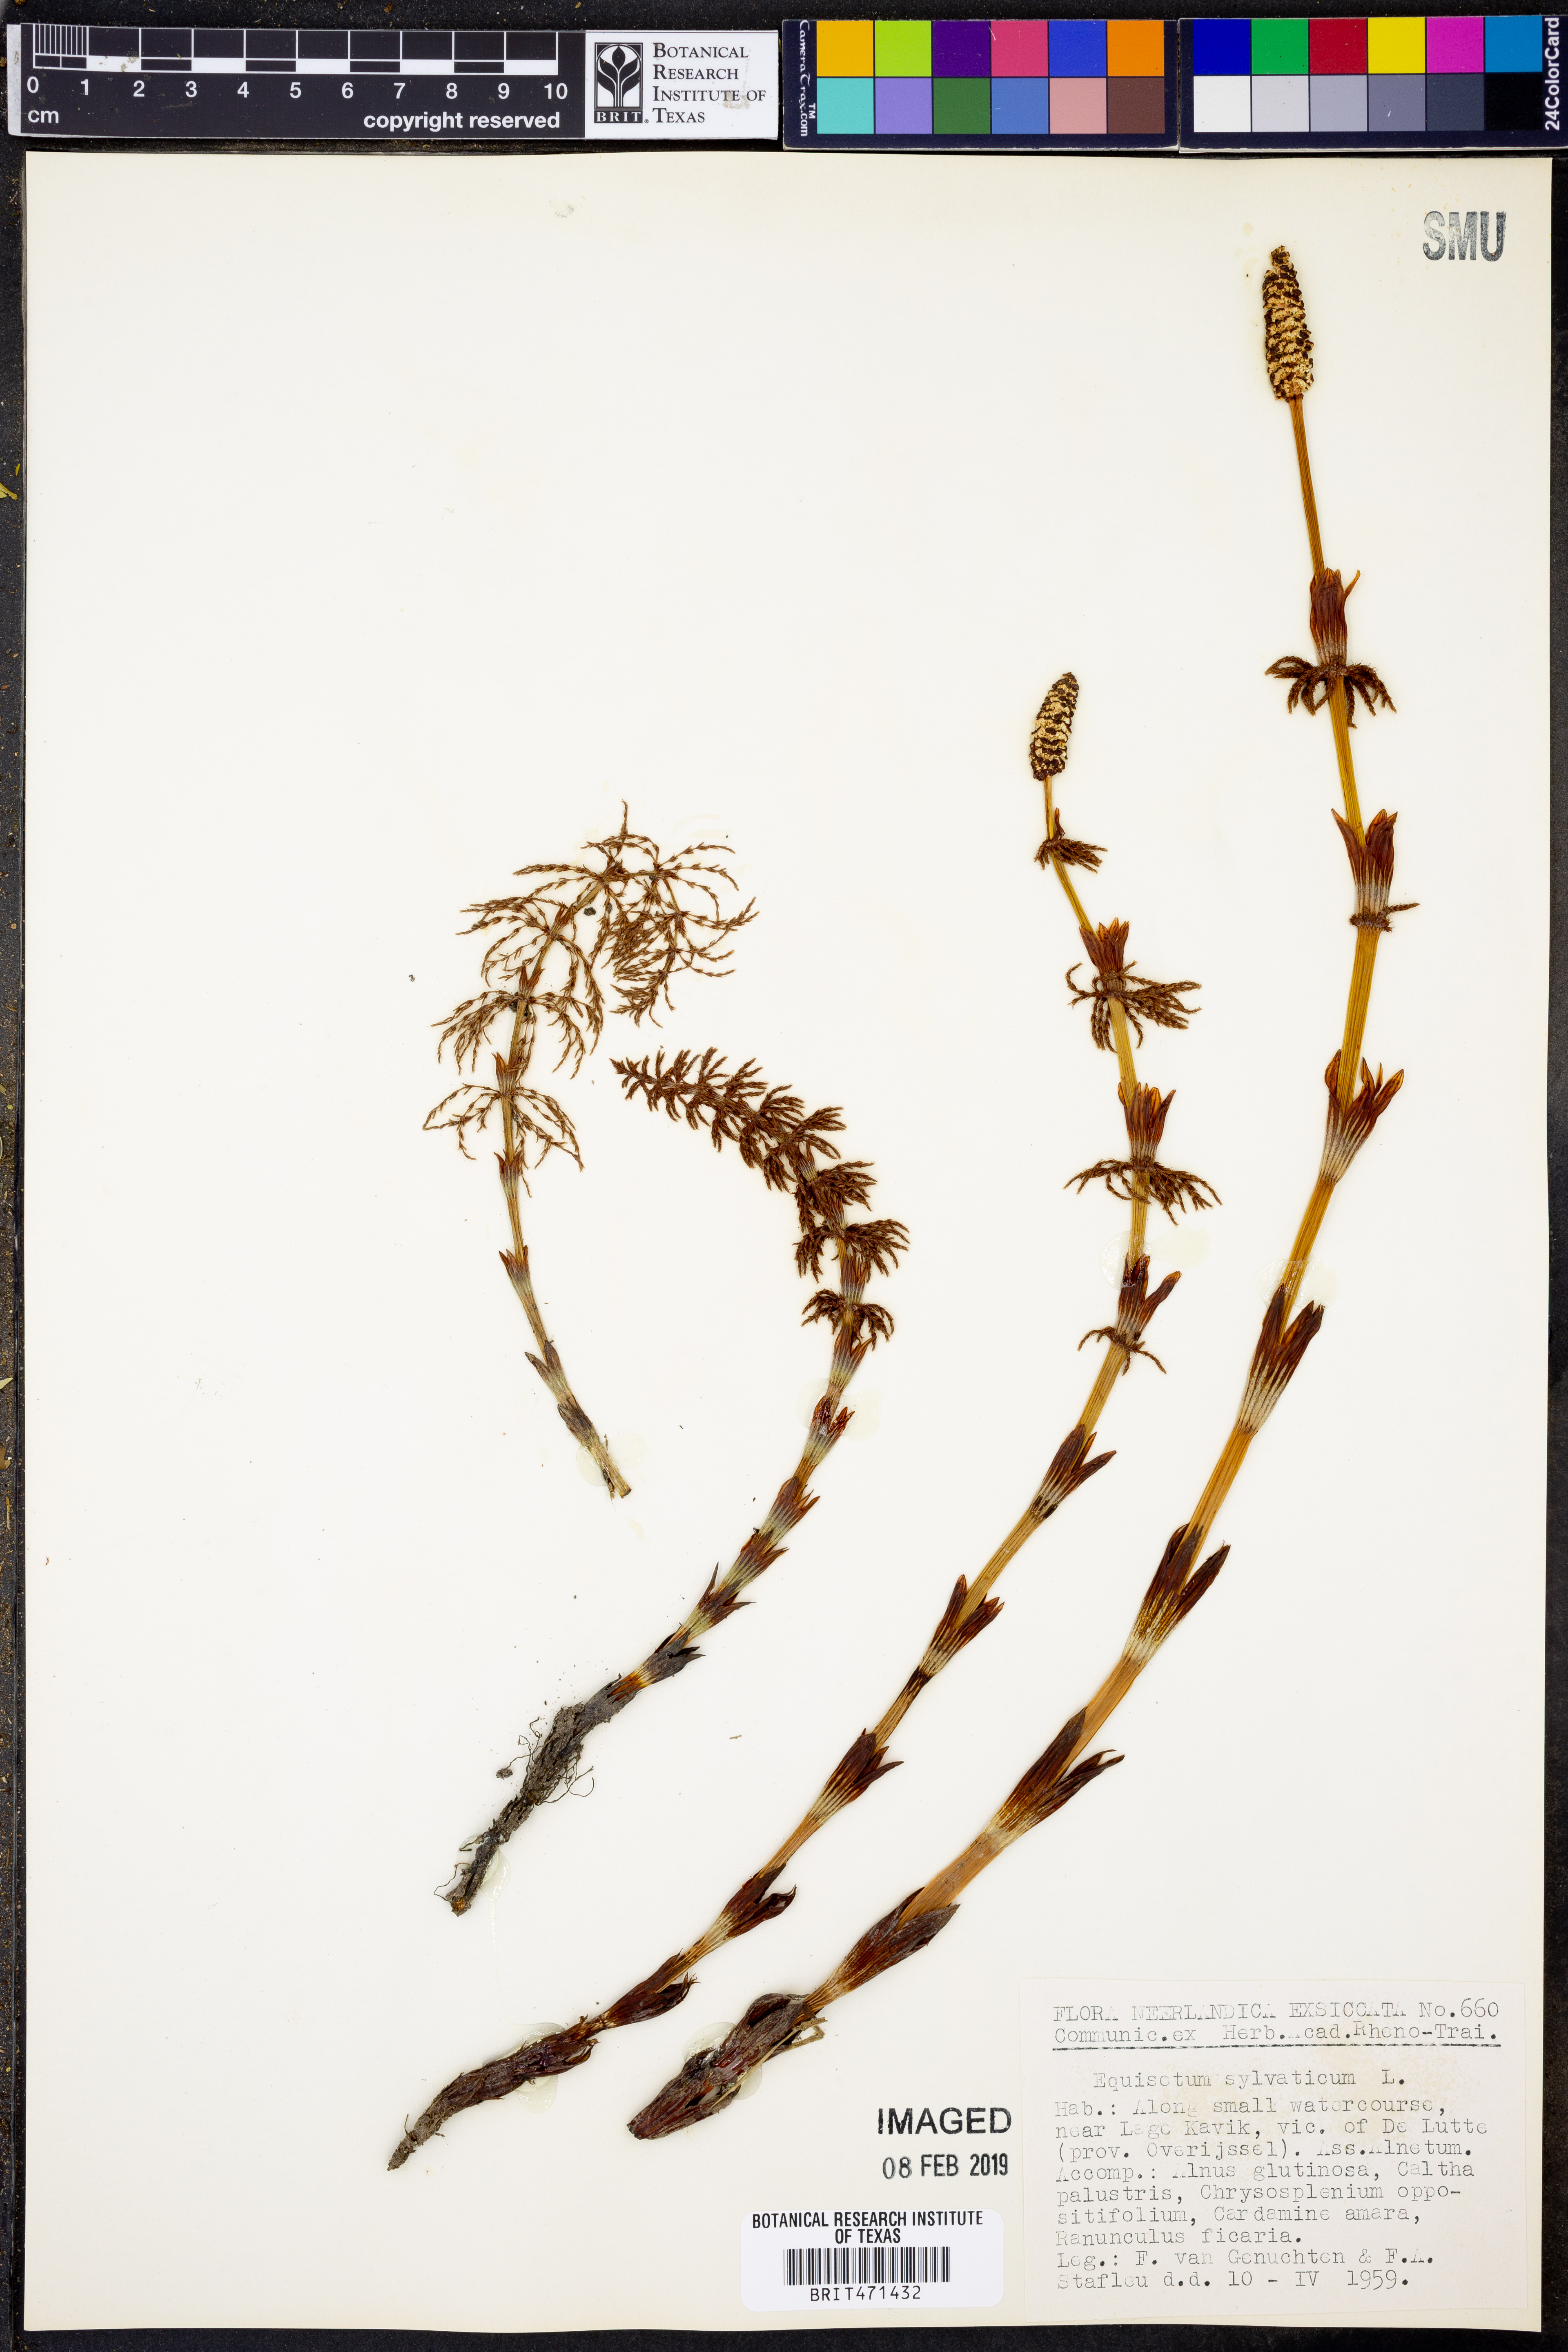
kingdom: Plantae
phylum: Tracheophyta
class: Polypodiopsida
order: Equisetales
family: Equisetaceae
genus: Equisetum
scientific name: Equisetum sylvaticum
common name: Wood horsetail
